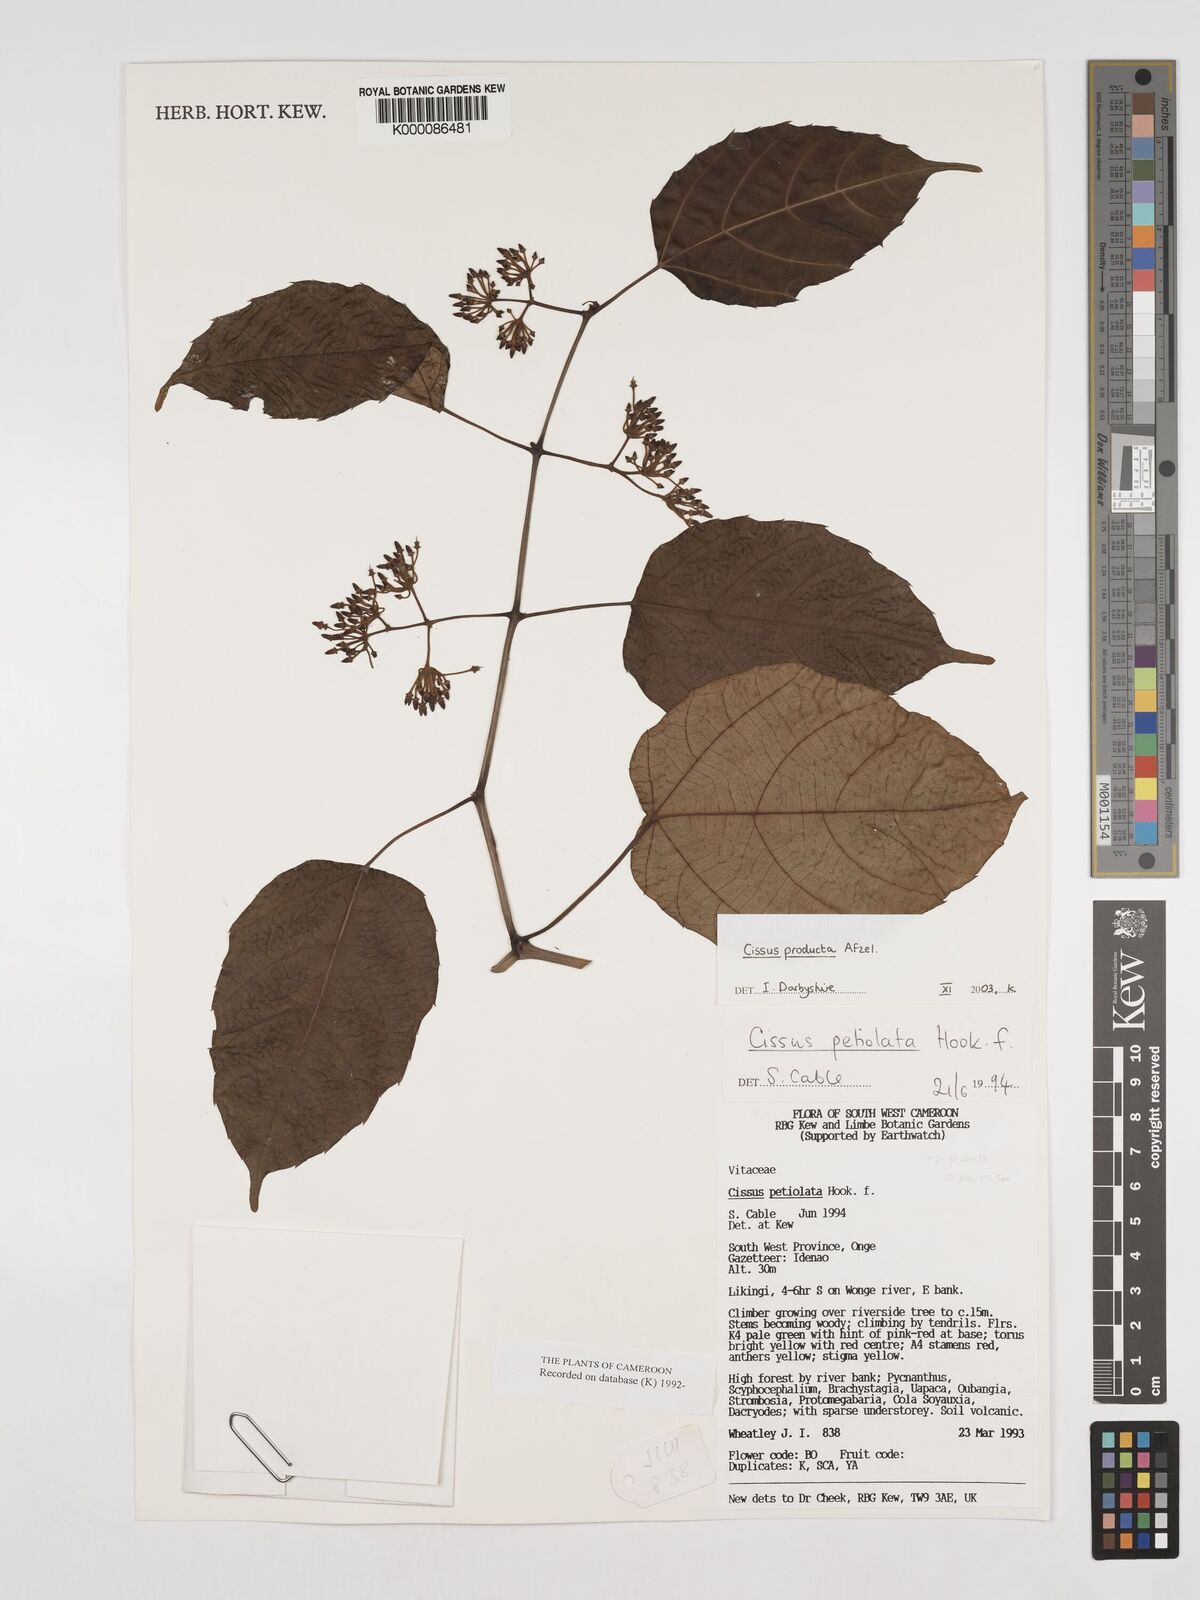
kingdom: Plantae
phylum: Tracheophyta
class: Magnoliopsida
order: Vitales
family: Vitaceae
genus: Cissus
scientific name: Cissus producta
